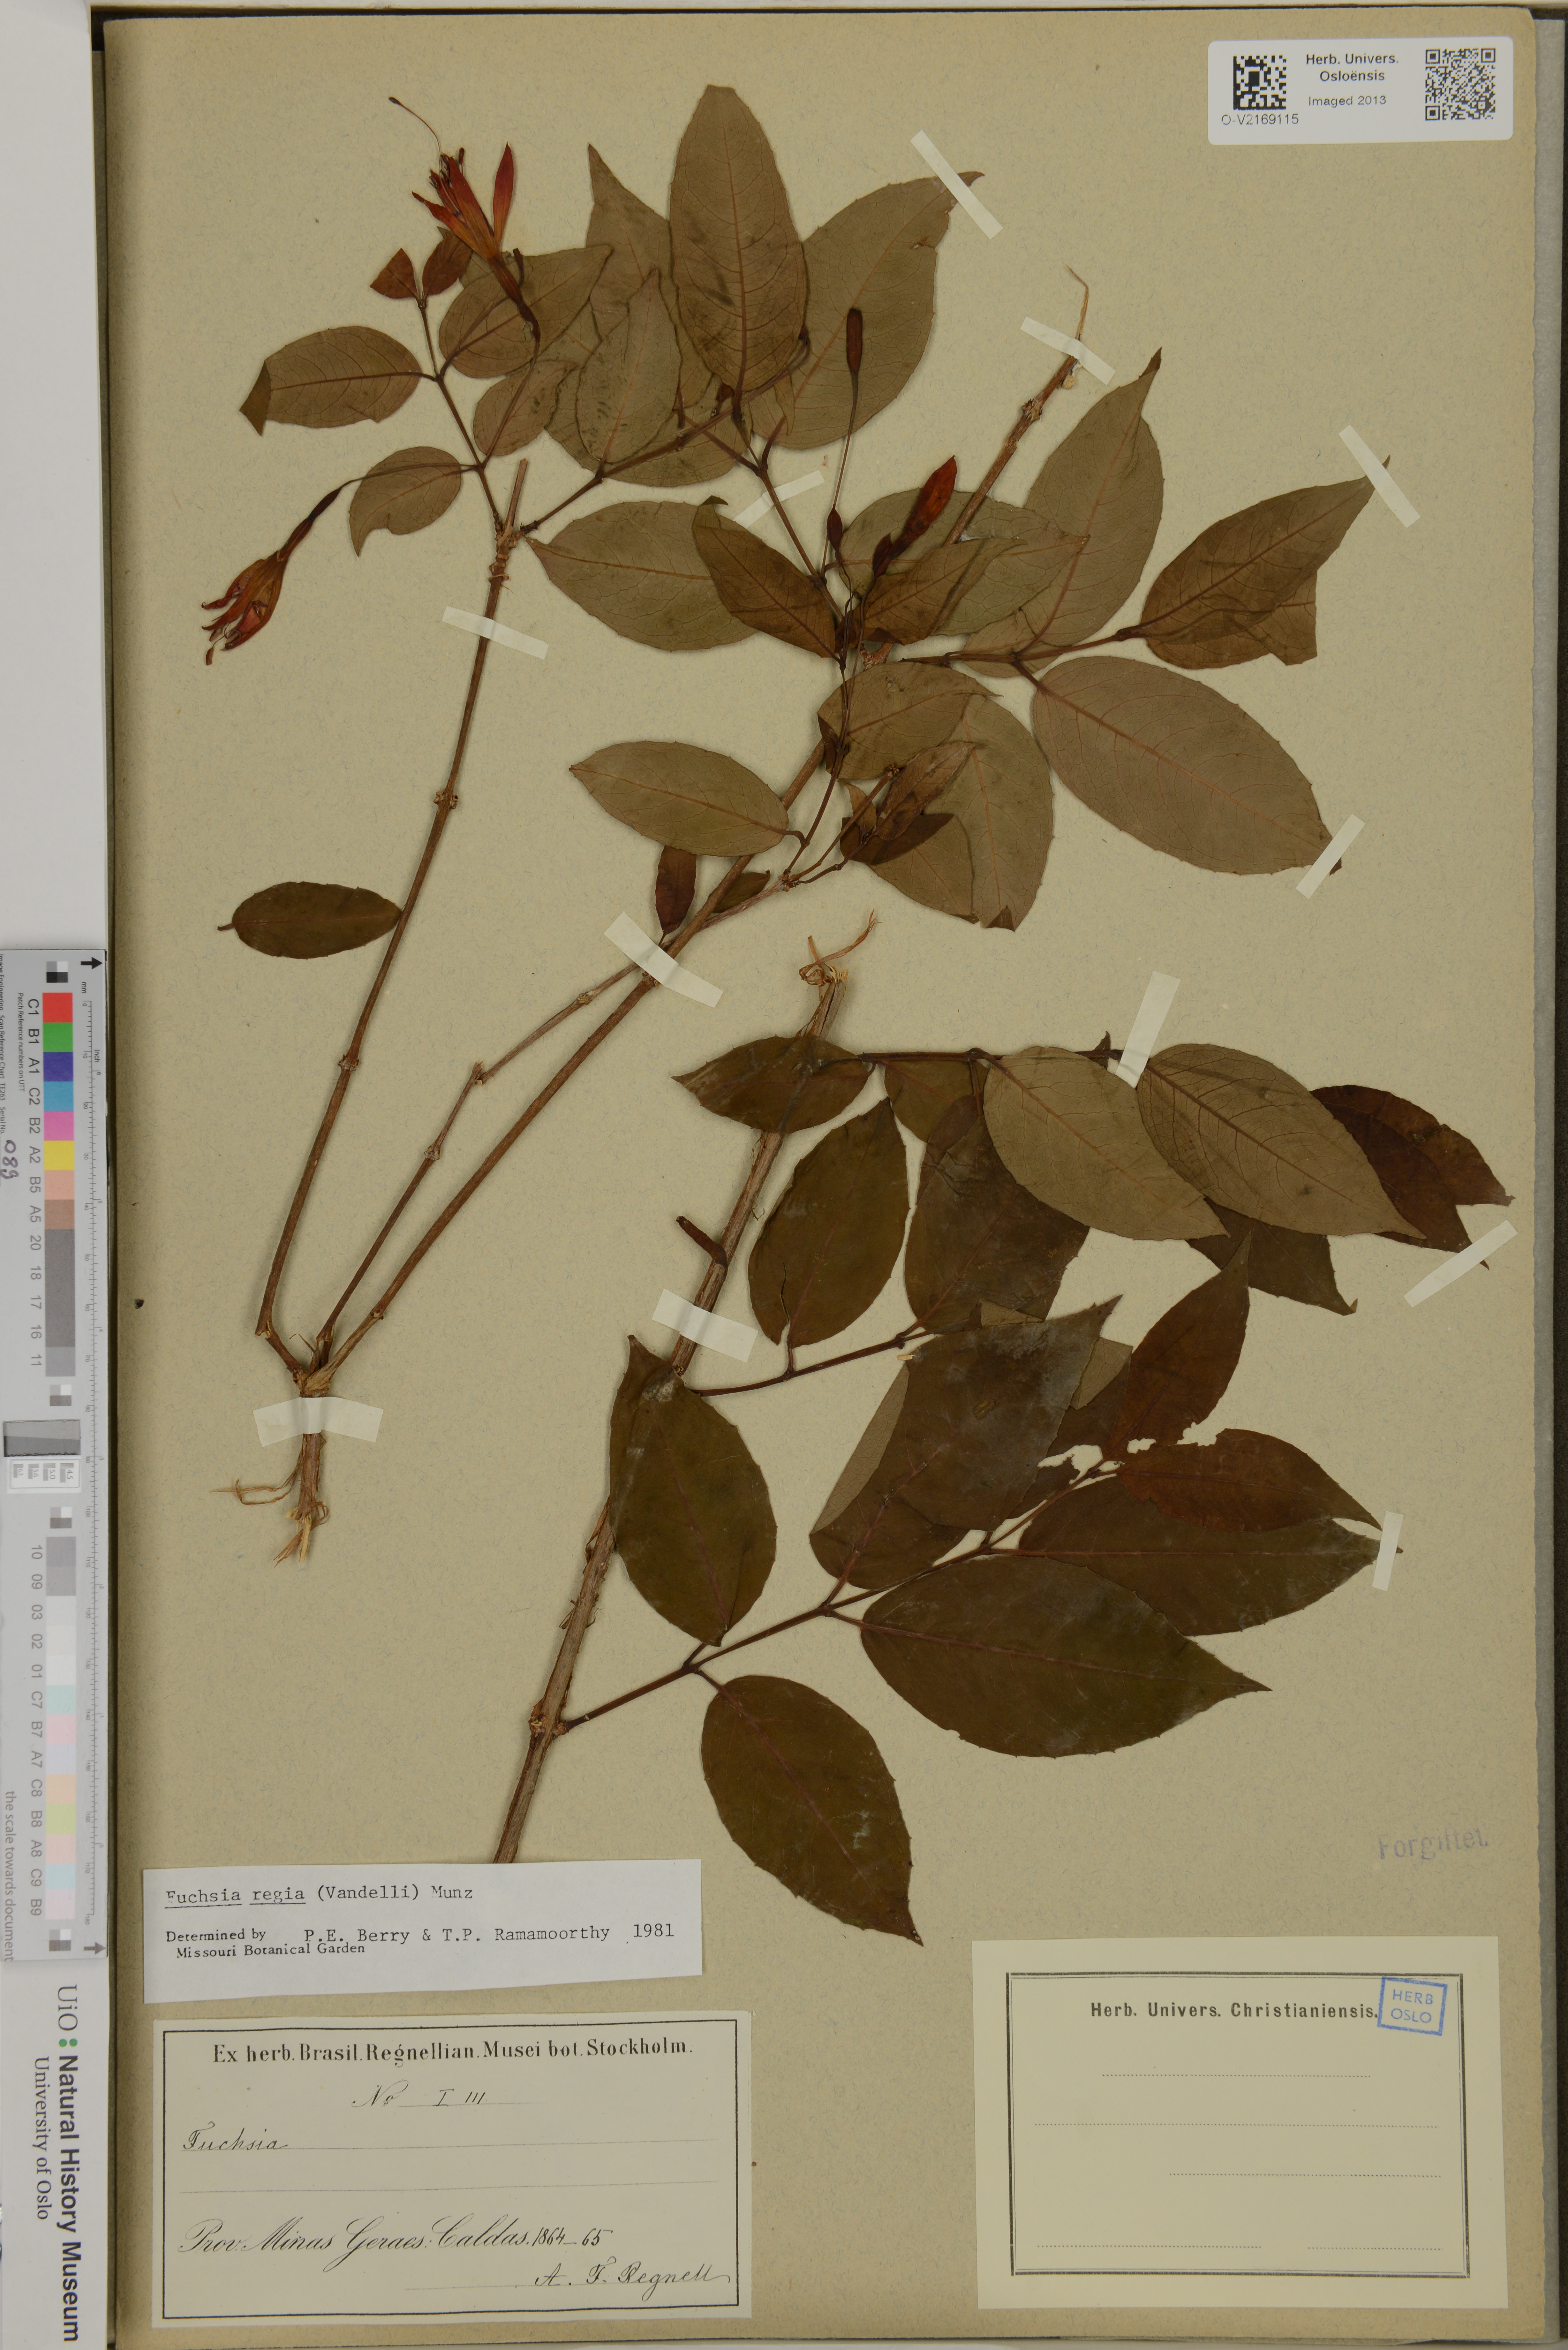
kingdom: Plantae
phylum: Tracheophyta
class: Magnoliopsida
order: Myrtales
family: Onagraceae
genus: Fuchsia
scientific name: Fuchsia regia
